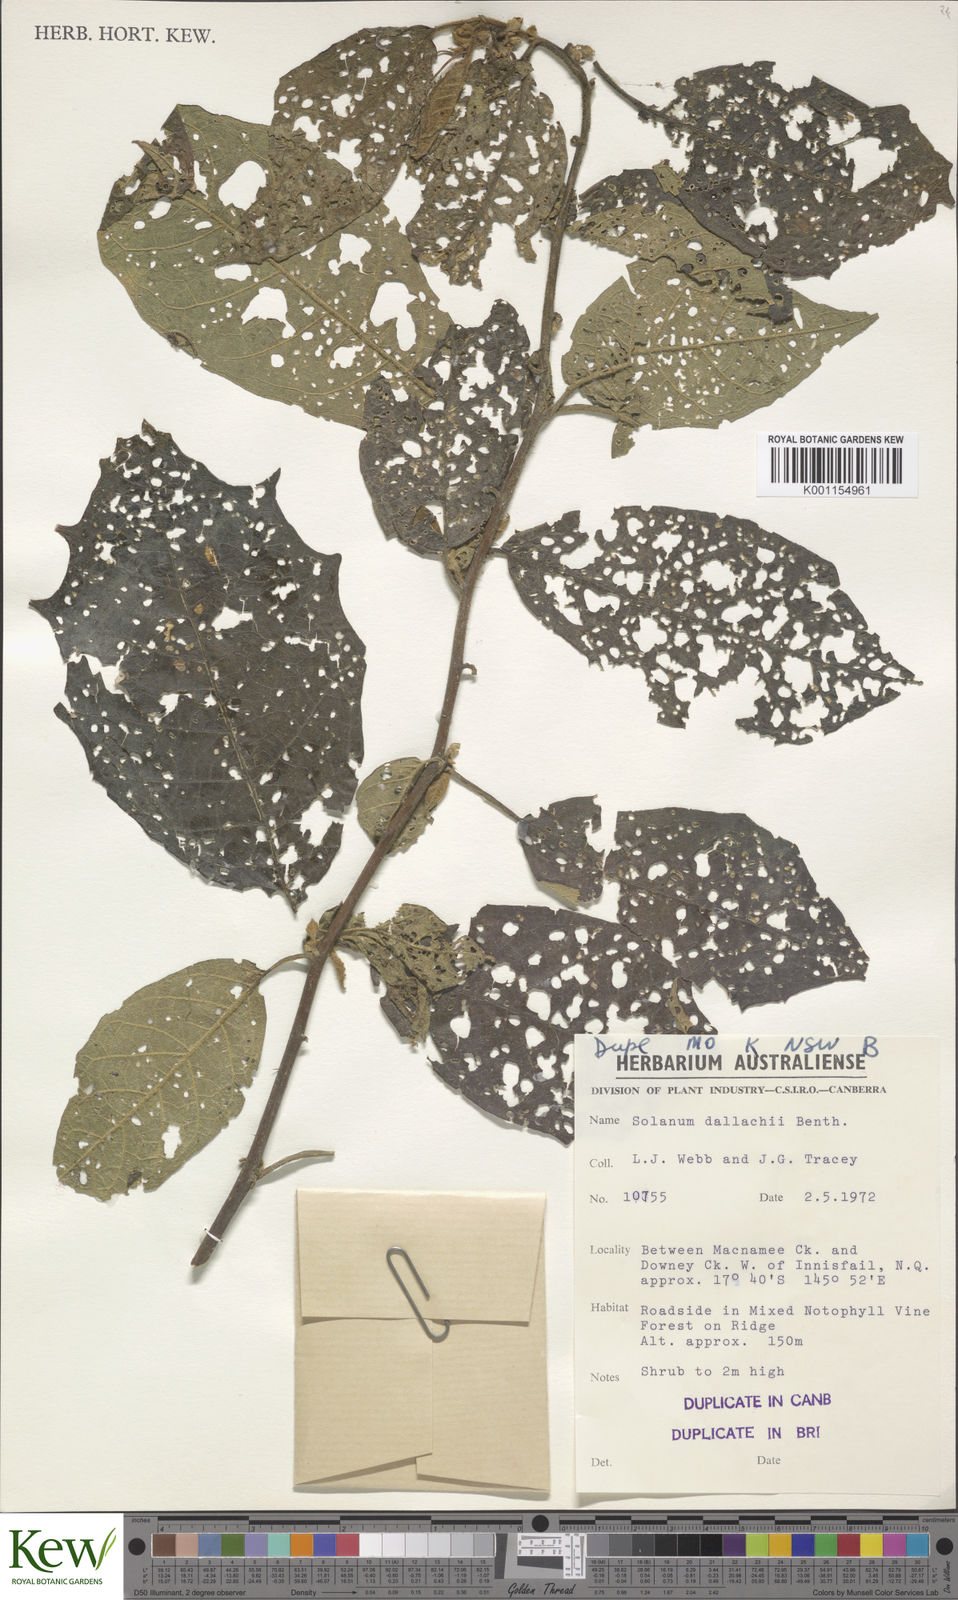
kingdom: Plantae
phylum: Tracheophyta
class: Magnoliopsida
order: Solanales
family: Solanaceae
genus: Solanum
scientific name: Solanum furfuraceum
